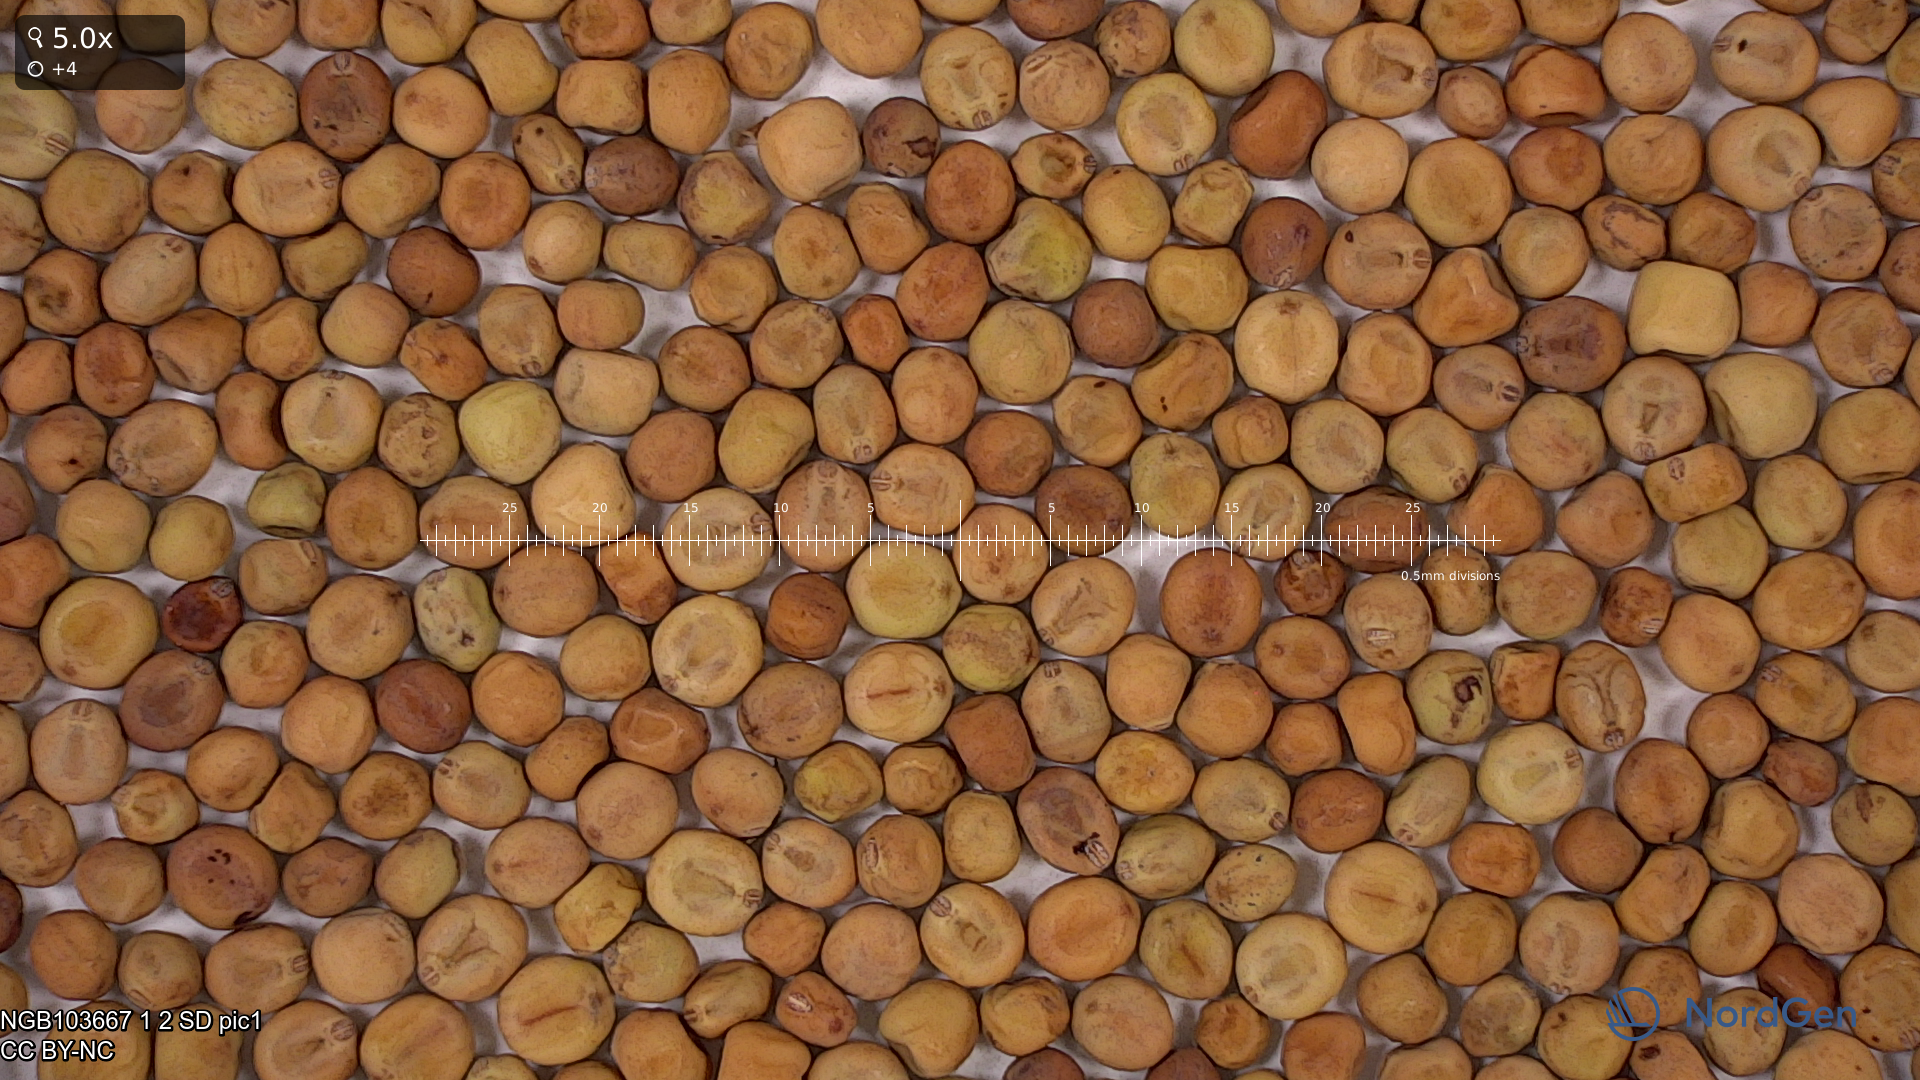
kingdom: Plantae
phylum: Tracheophyta
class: Magnoliopsida
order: Fabales
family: Fabaceae
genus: Lathyrus
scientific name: Lathyrus oleraceus
